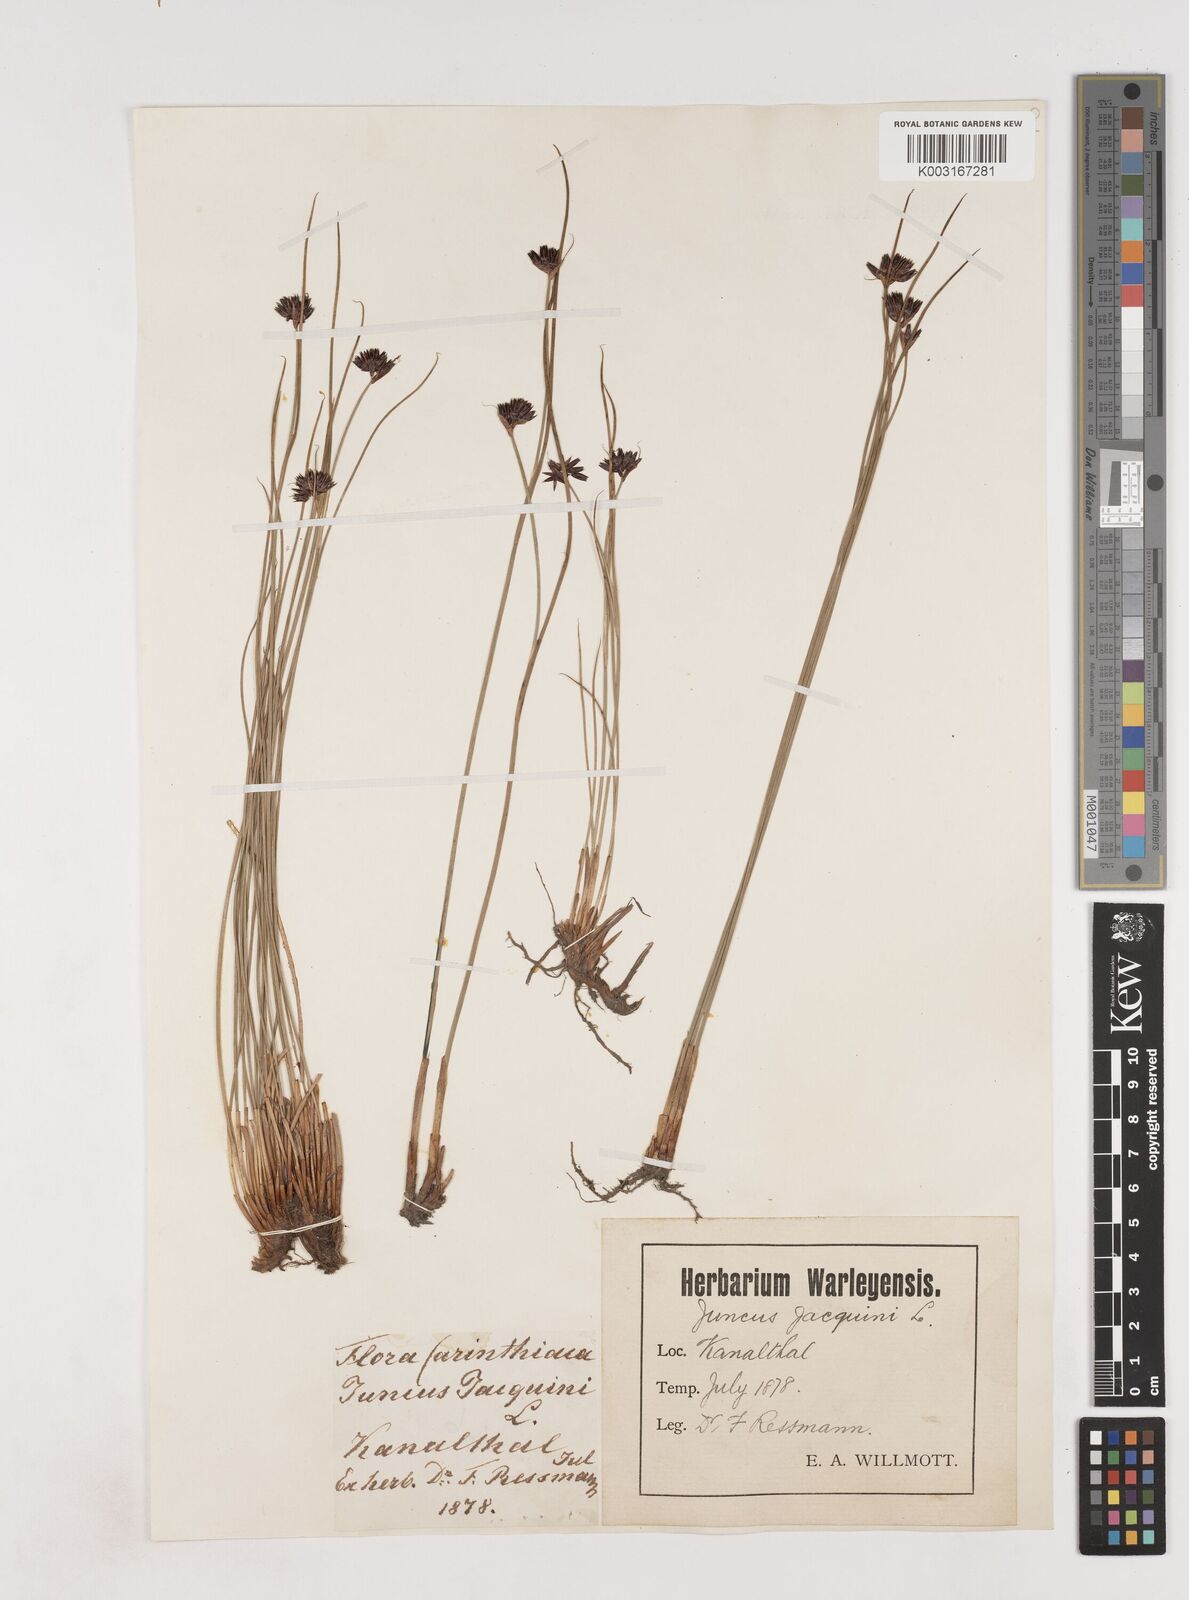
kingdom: Plantae
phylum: Tracheophyta
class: Liliopsida
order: Poales
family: Juncaceae
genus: Juncus
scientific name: Juncus jacquinii
